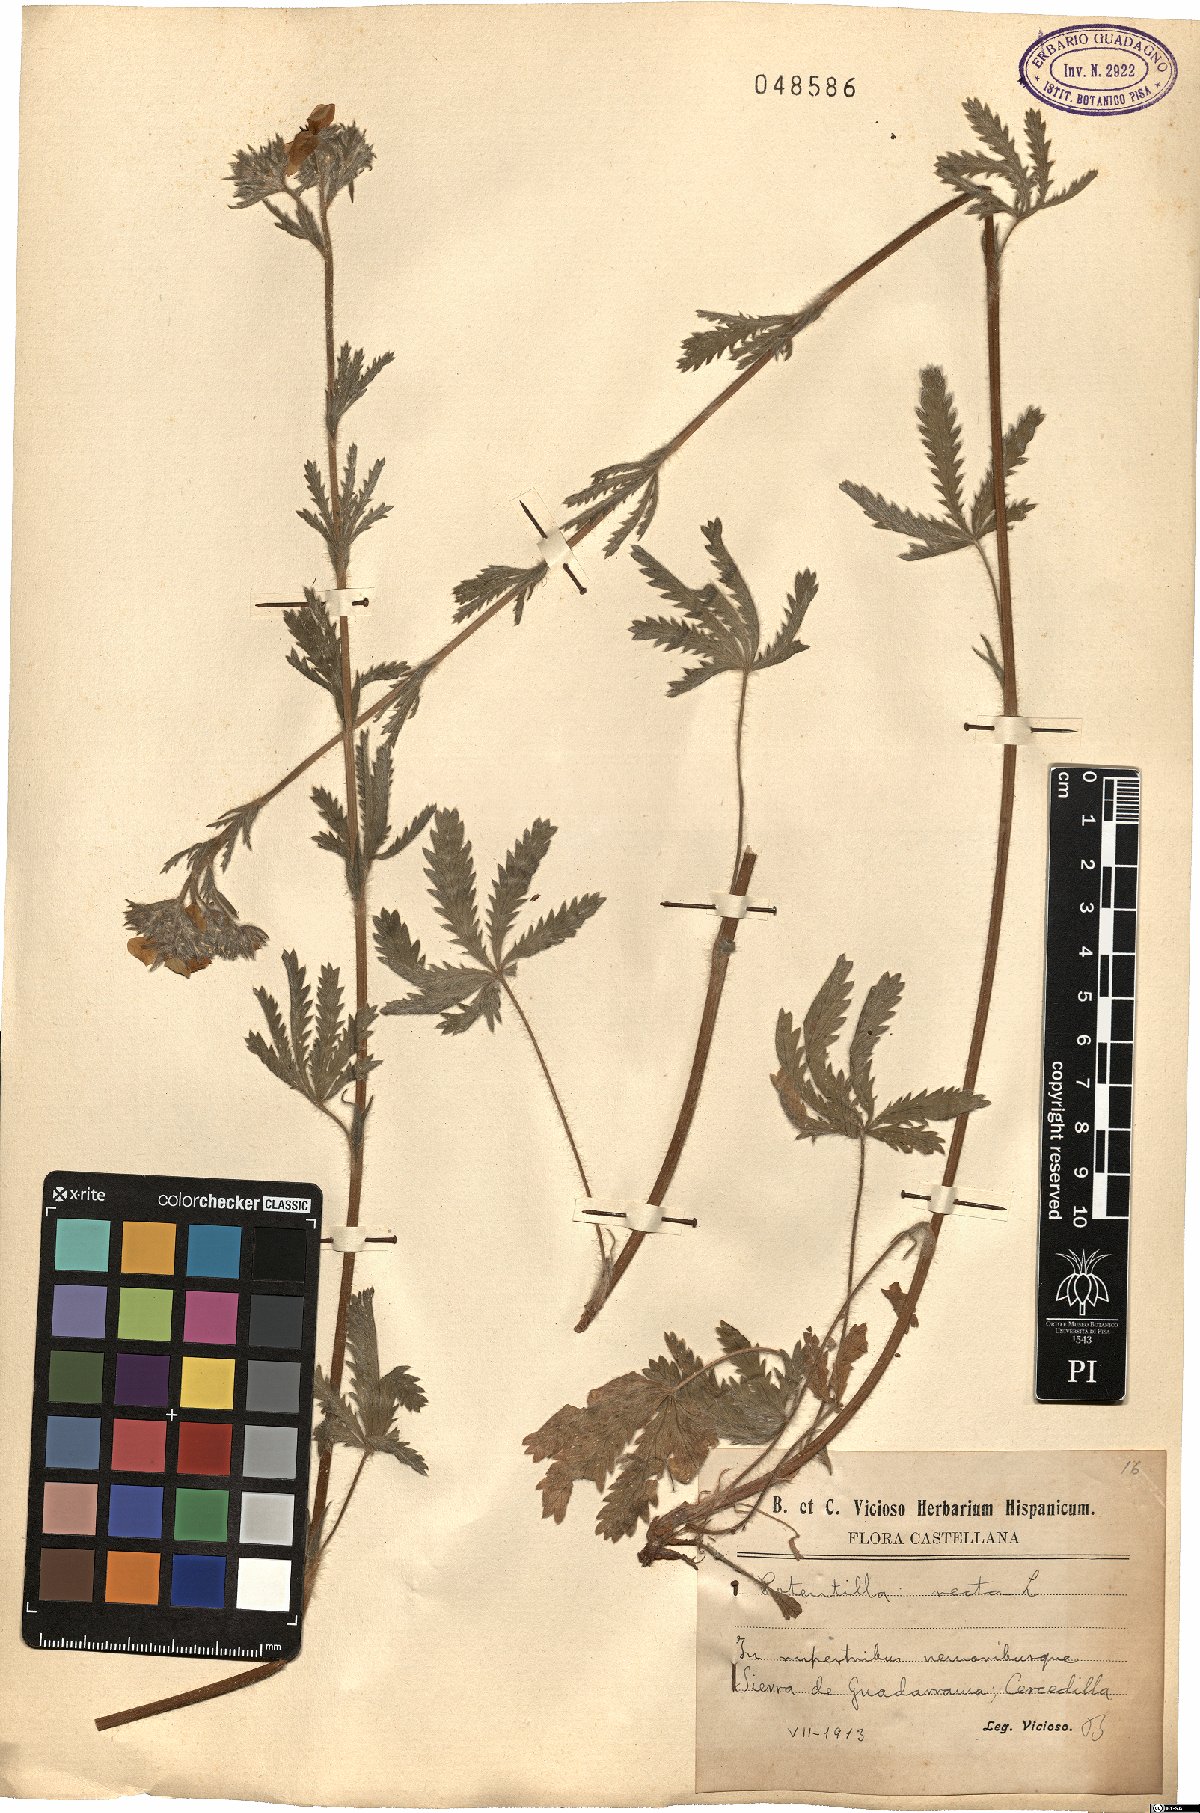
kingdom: Plantae
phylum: Tracheophyta
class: Magnoliopsida
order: Rosales
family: Rosaceae
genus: Potentilla
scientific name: Potentilla recta
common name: Sulphur cinquefoil
